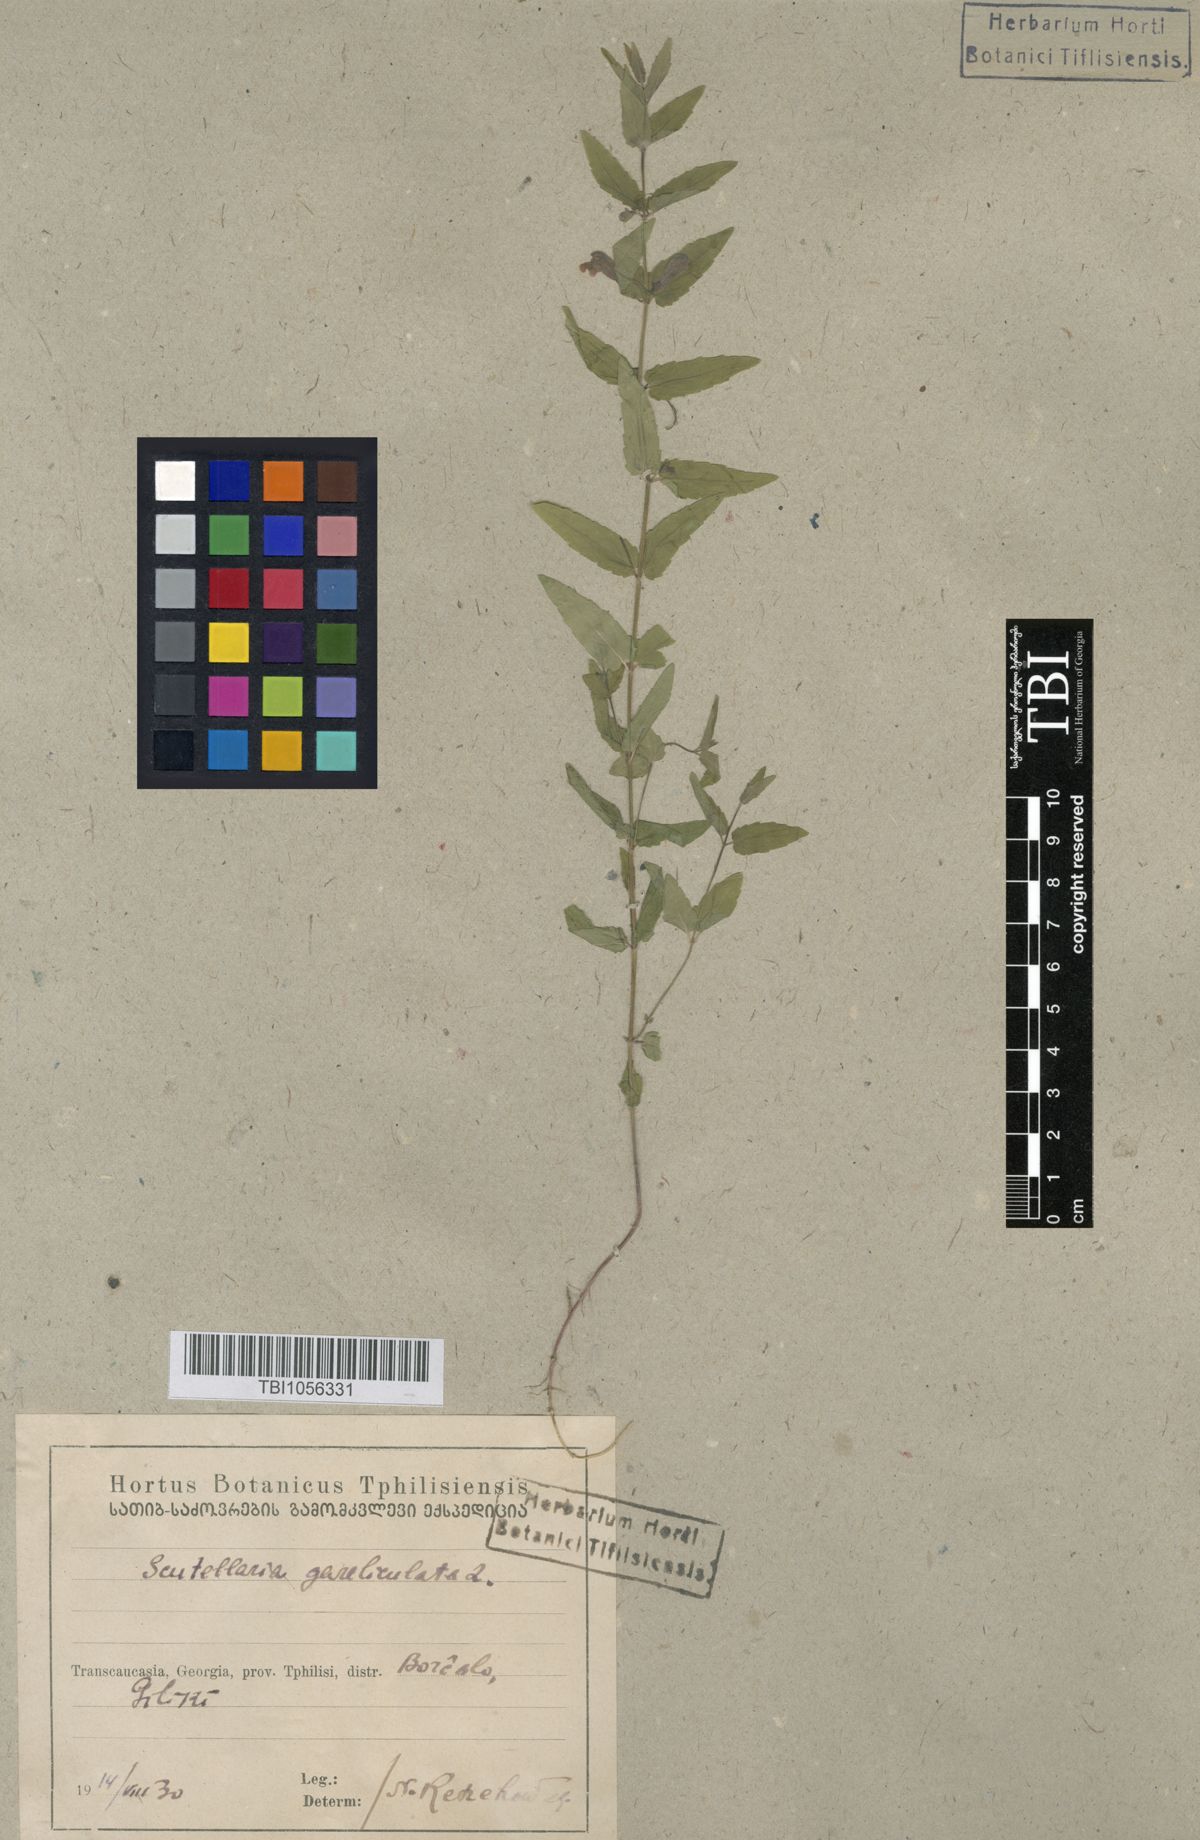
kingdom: Plantae
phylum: Tracheophyta
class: Magnoliopsida
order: Lamiales
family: Lamiaceae
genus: Scutellaria
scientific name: Scutellaria galericulata
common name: Skullcap
